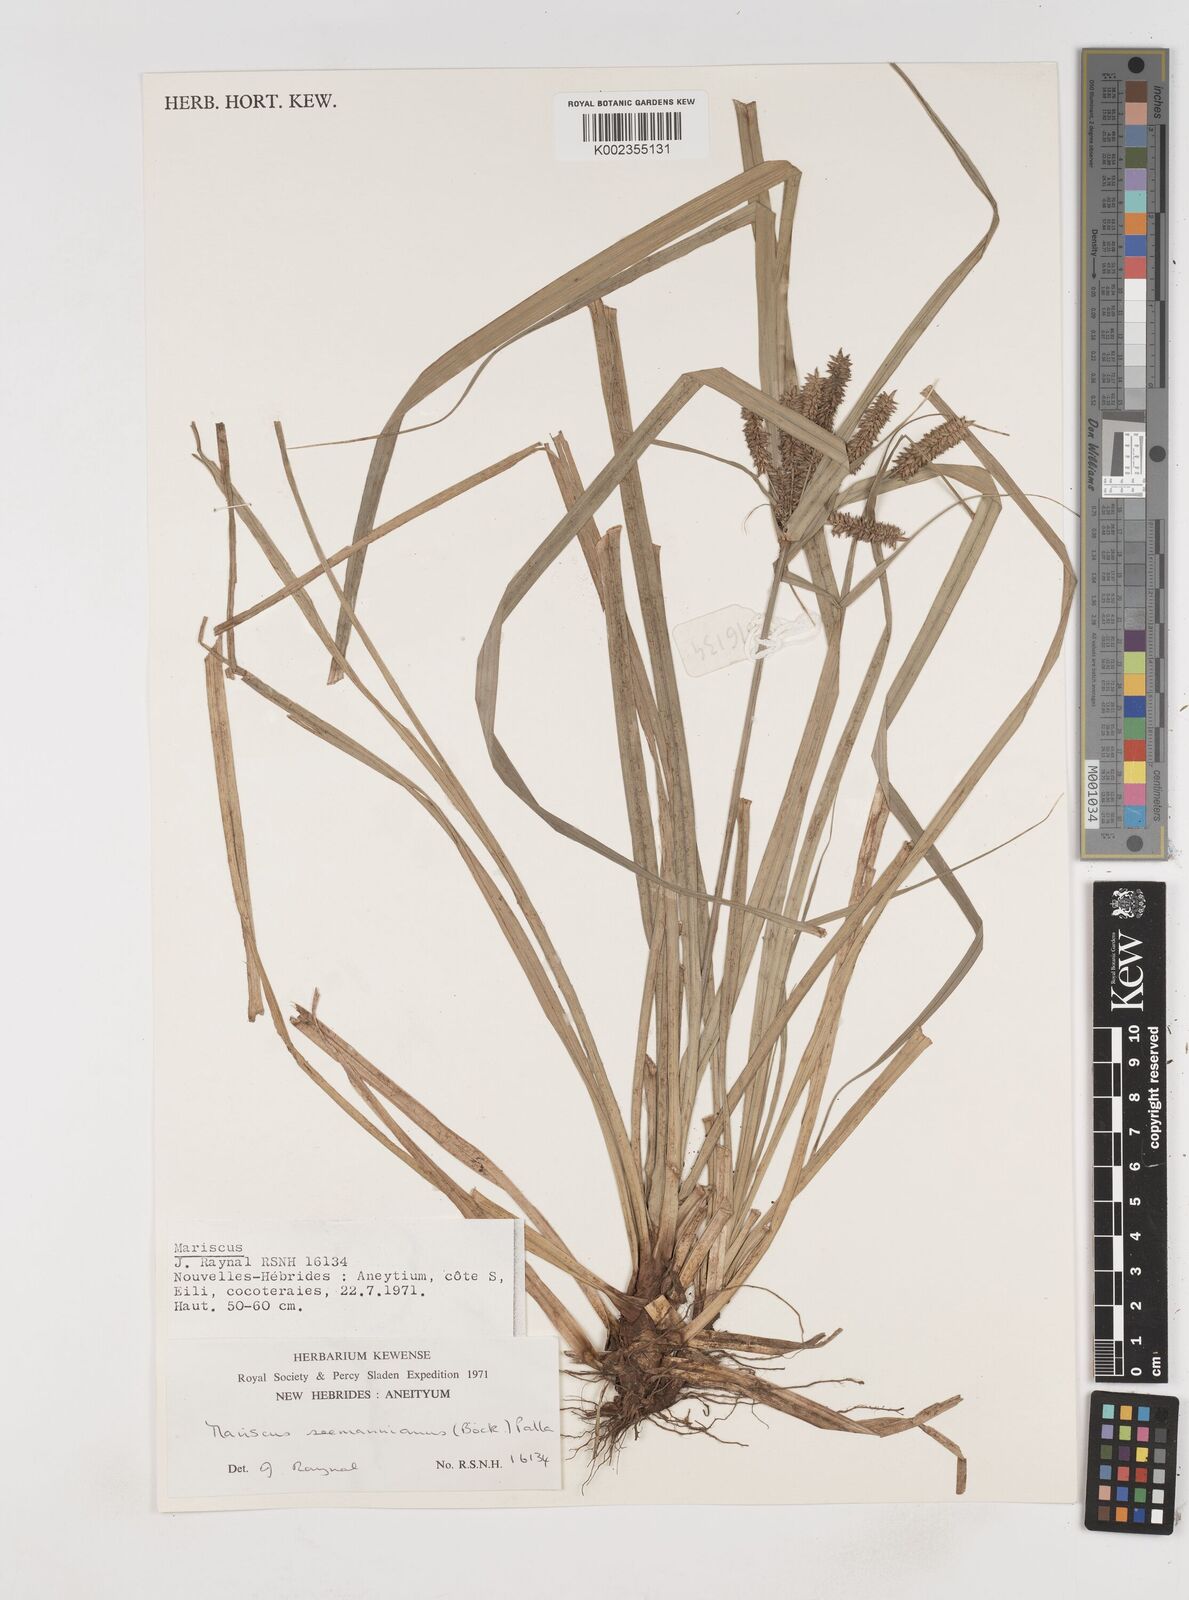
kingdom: Plantae
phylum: Tracheophyta
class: Liliopsida
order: Poales
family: Cyperaceae
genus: Cyperus
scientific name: Cyperus seemannianus
